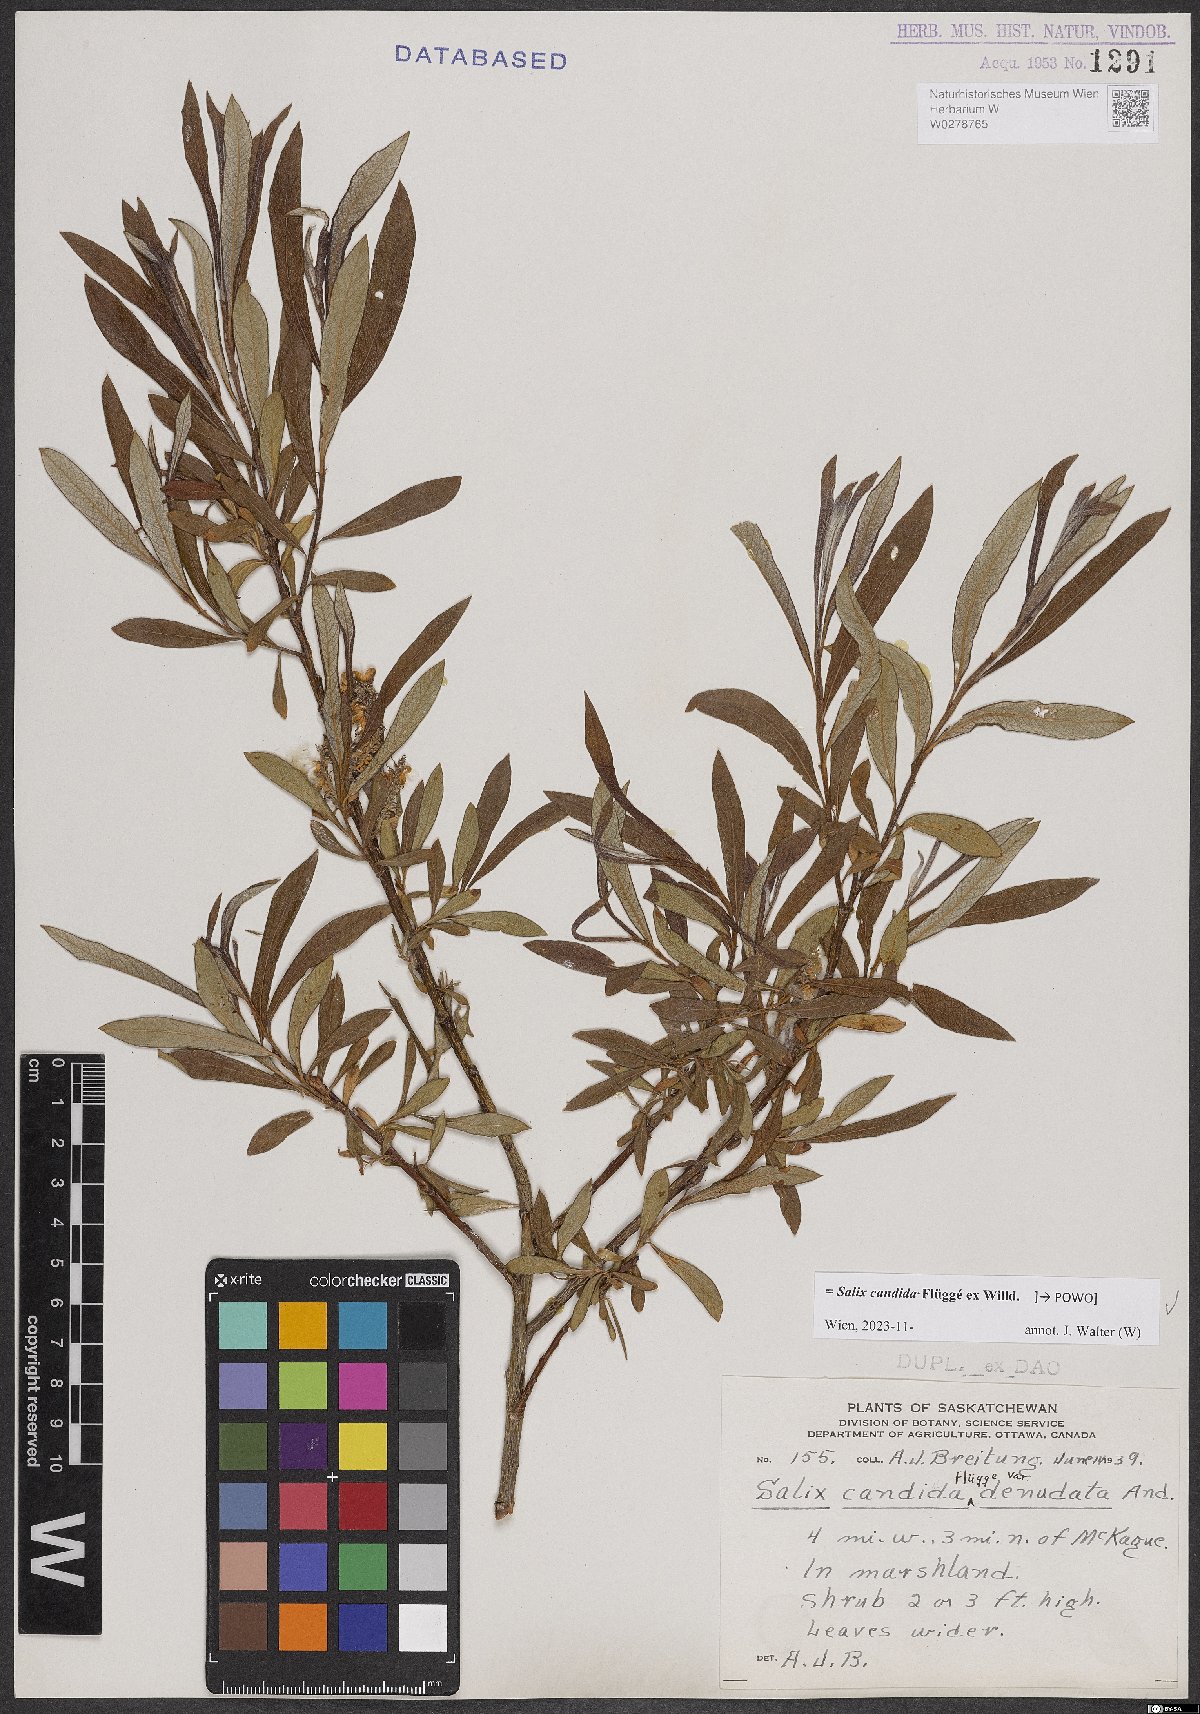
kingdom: Plantae
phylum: Tracheophyta
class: Magnoliopsida
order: Malpighiales
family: Salicaceae
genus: Salix
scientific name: Salix candida
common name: Hoary willow
